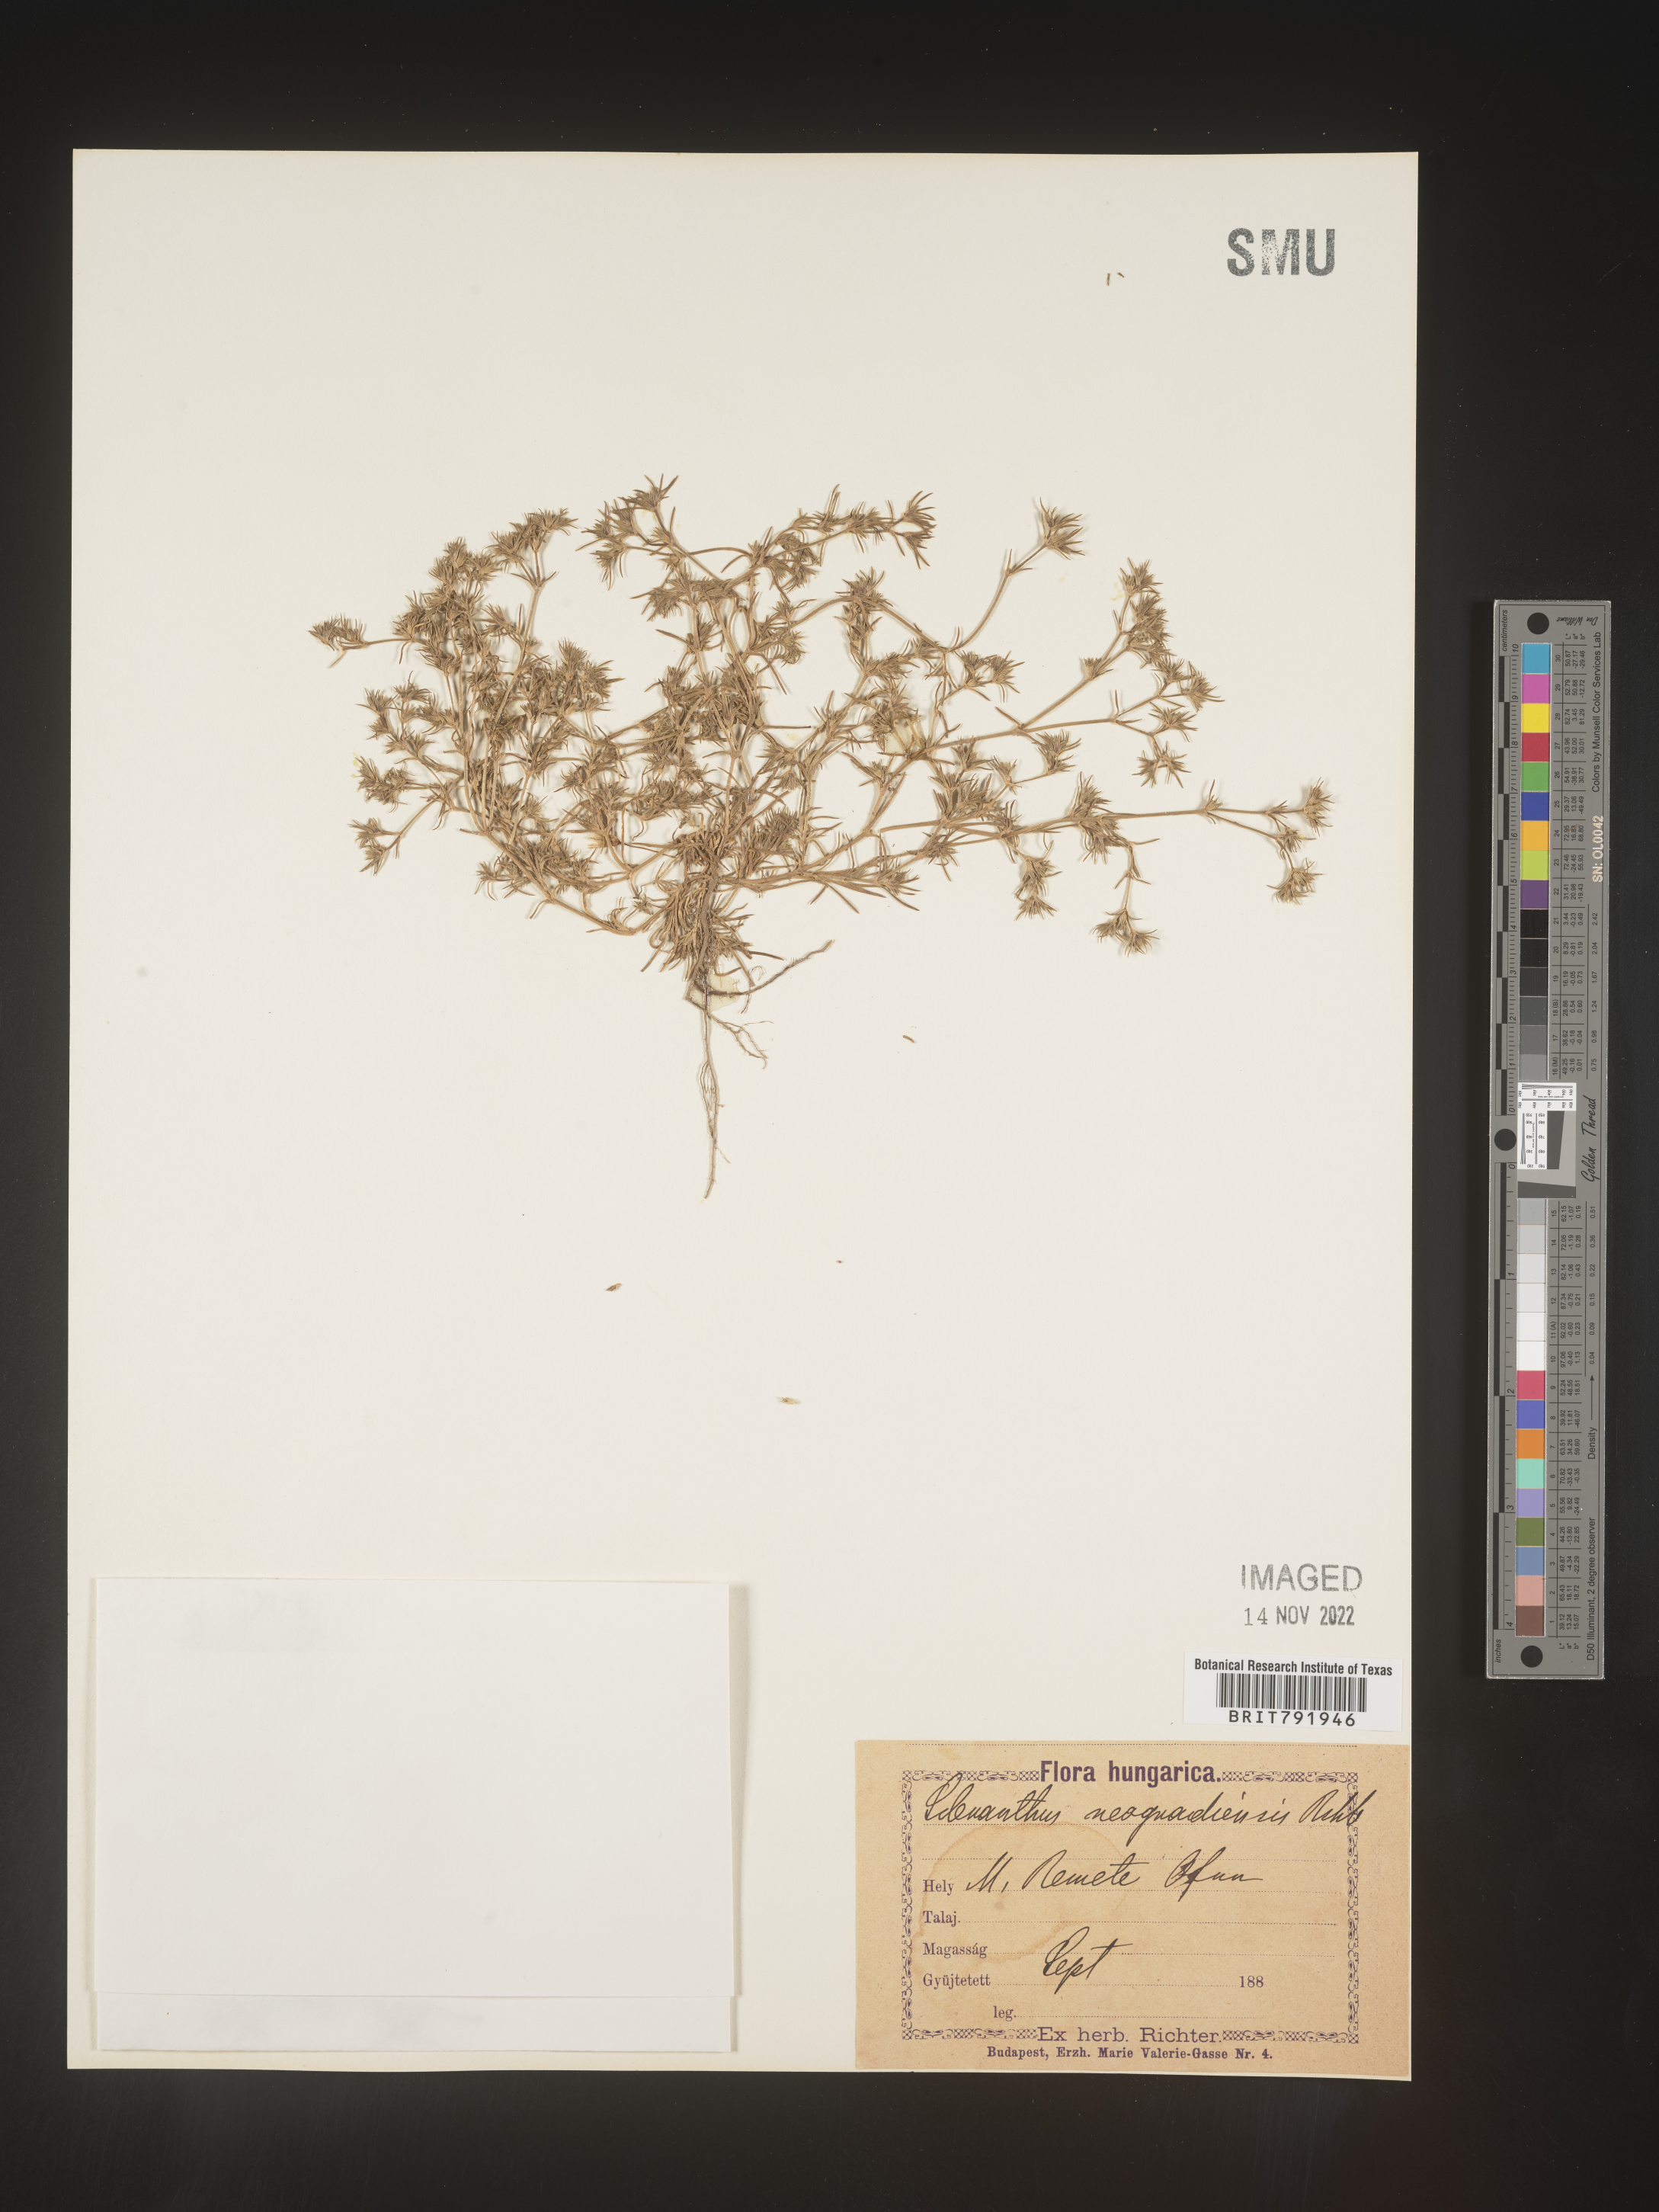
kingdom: Plantae
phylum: Tracheophyta
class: Magnoliopsida
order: Caryophyllales
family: Caryophyllaceae
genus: Scleranthus
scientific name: Scleranthus
